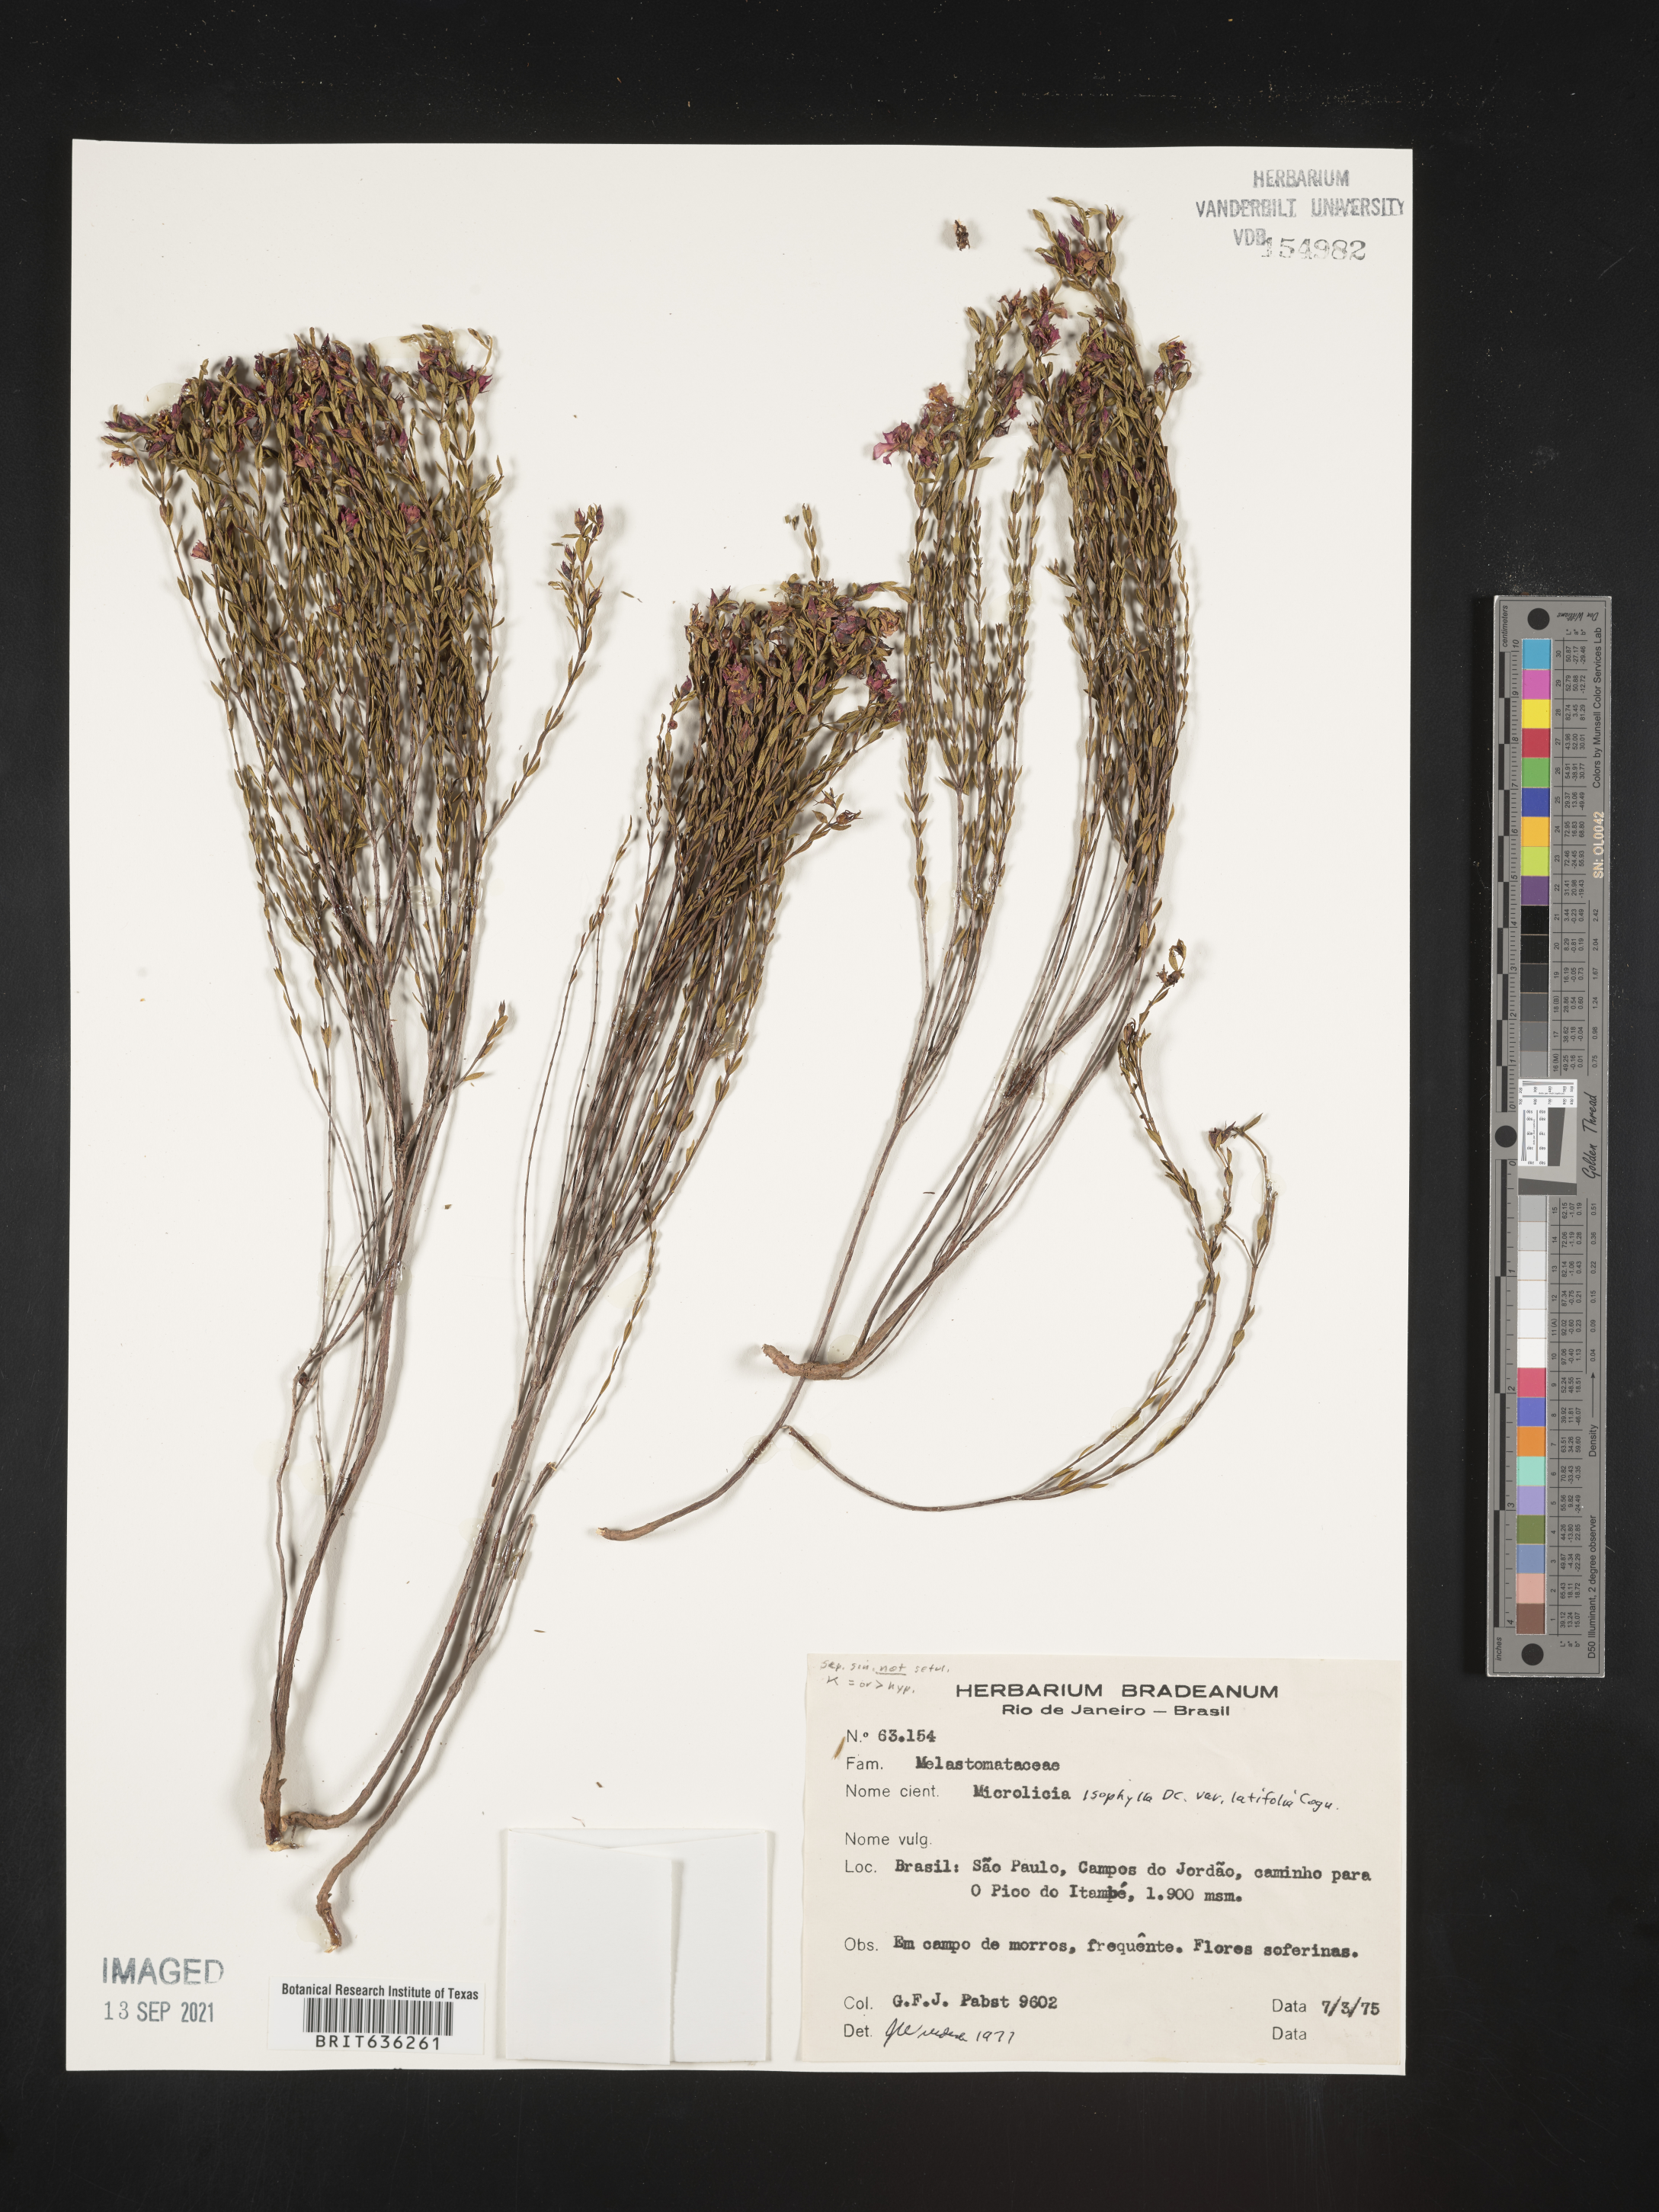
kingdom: Plantae
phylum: Tracheophyta
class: Magnoliopsida
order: Myrtales
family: Melastomataceae
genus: Microlicia
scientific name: Microlicia
